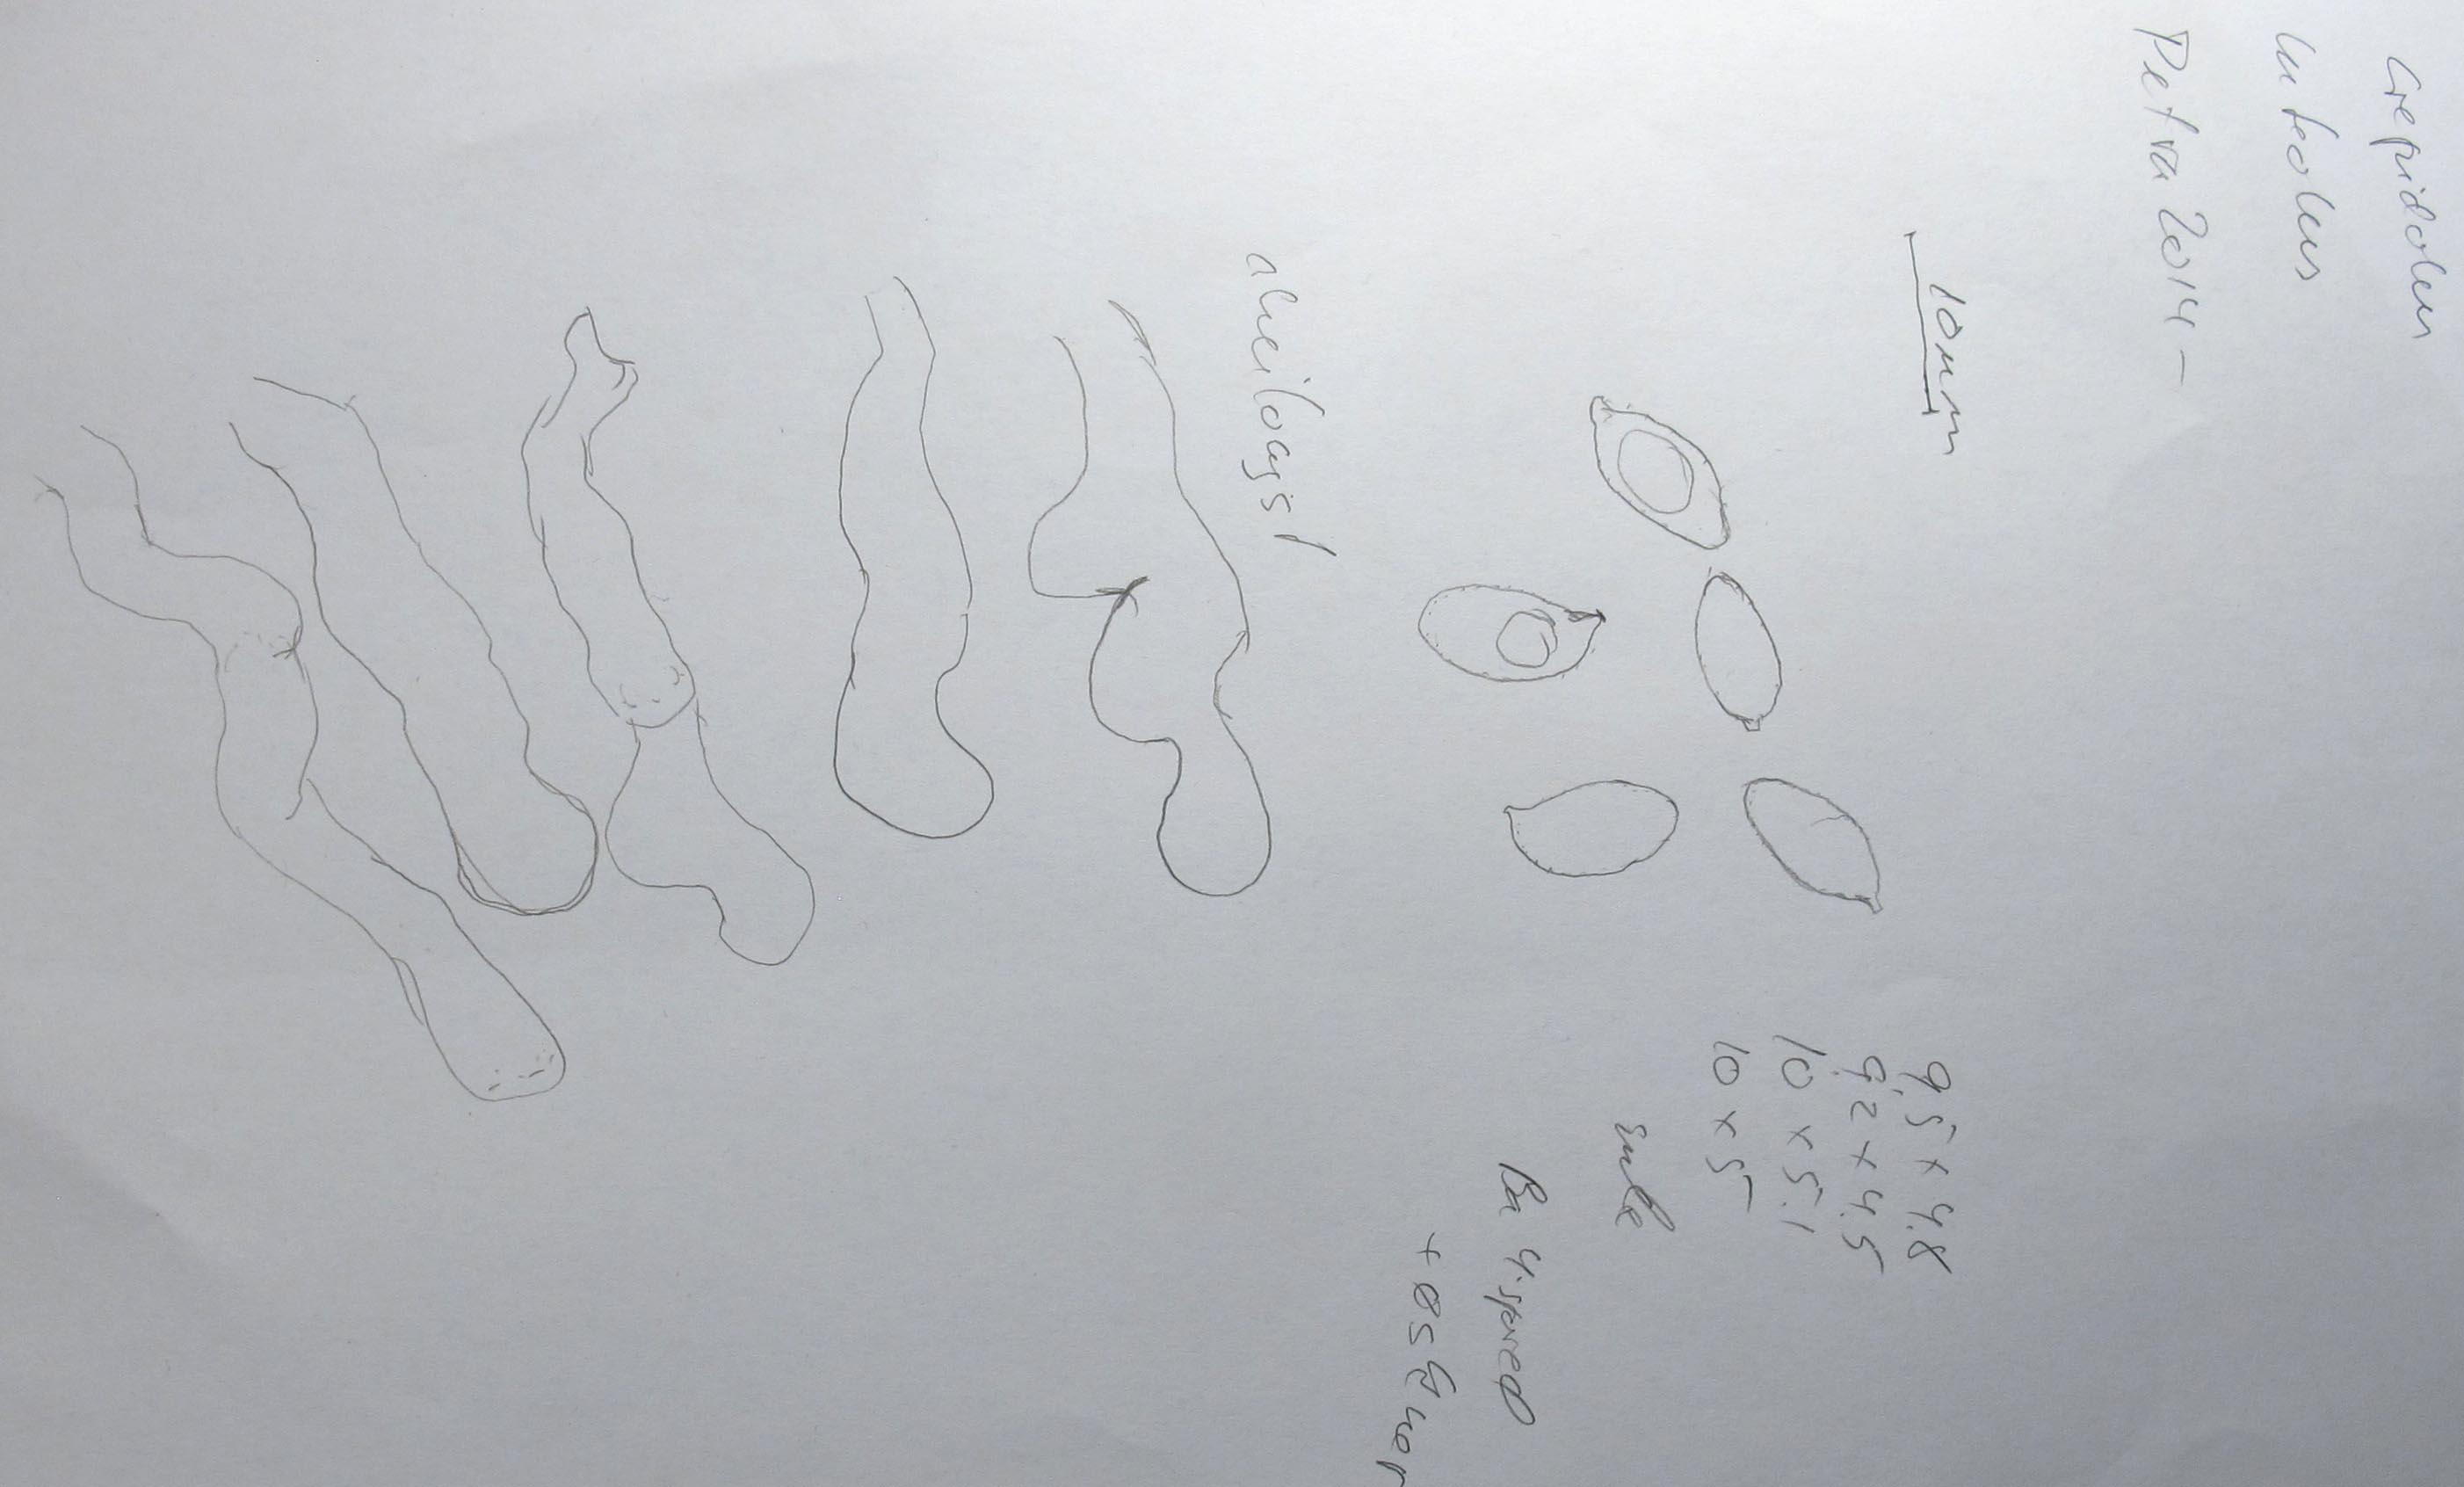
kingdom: Fungi
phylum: Basidiomycota
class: Agaricomycetes
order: Agaricales
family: Crepidotaceae
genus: Crepidotus
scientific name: Crepidotus luteolus
